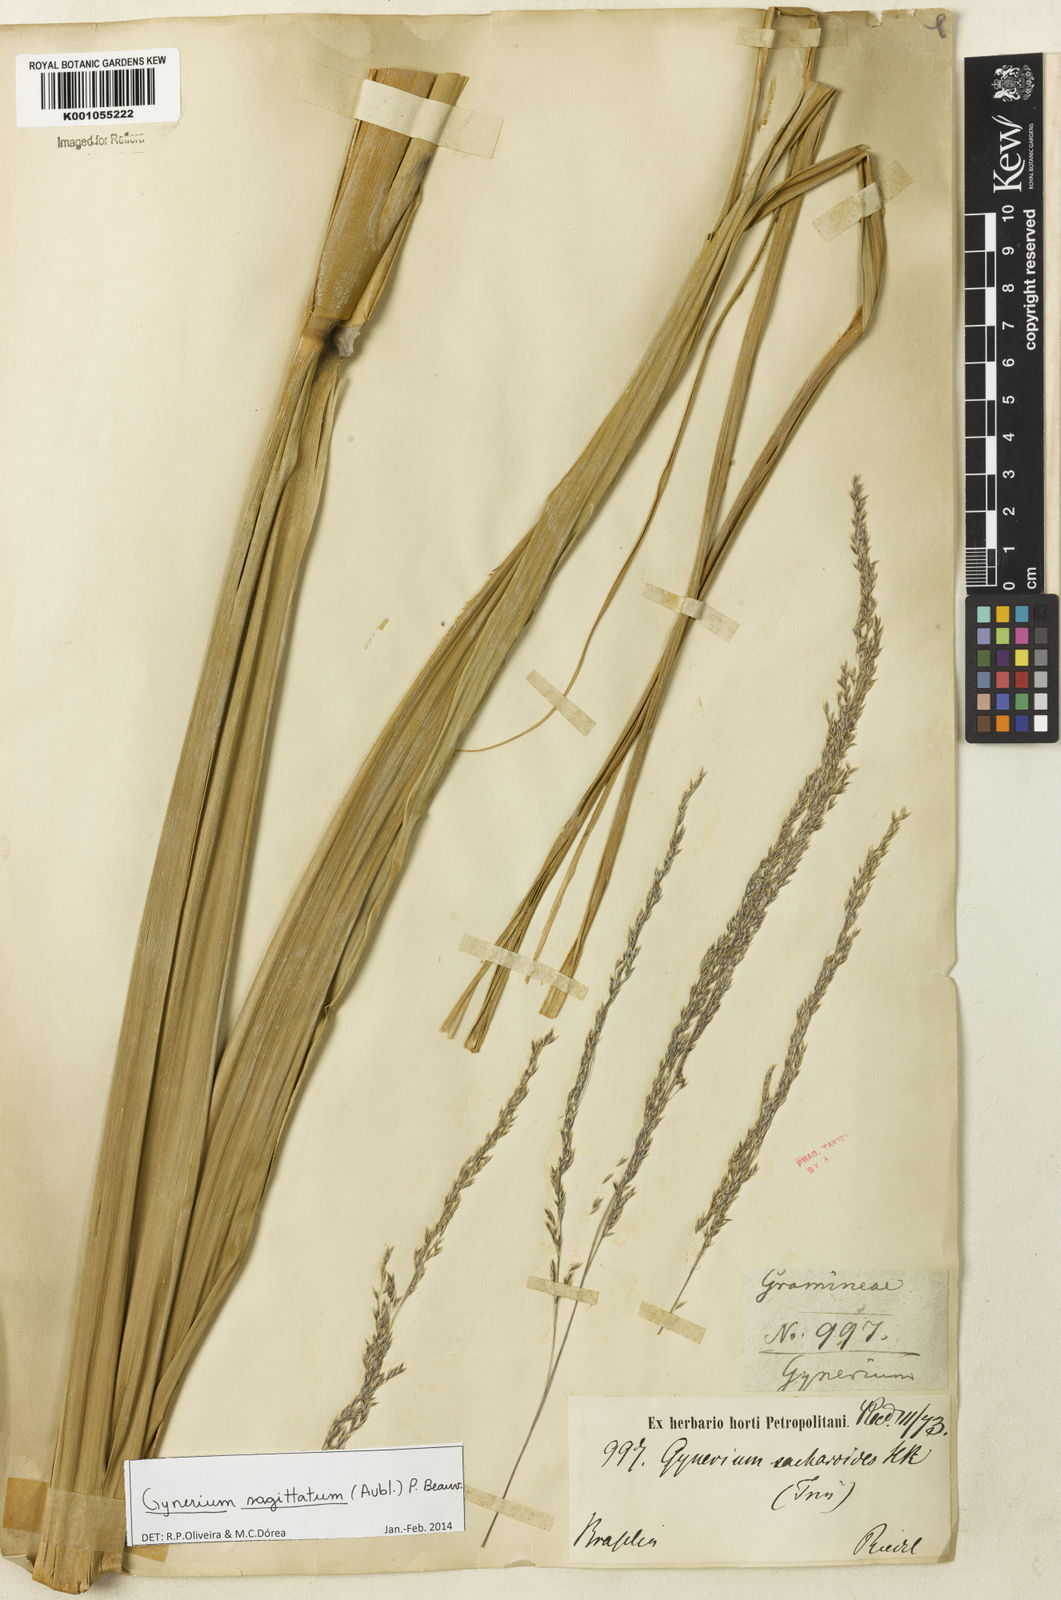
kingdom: Plantae
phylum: Tracheophyta
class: Liliopsida
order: Poales
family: Poaceae
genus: Gynerium
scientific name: Gynerium sagittatum
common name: Wild cane
